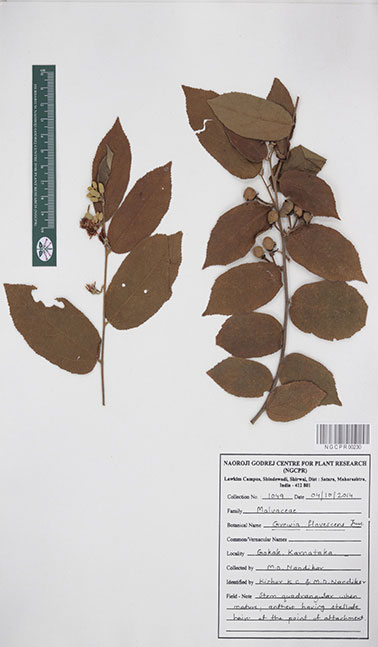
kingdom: Plantae
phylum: Tracheophyta
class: Magnoliopsida
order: Malvales
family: Malvaceae
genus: Grewia
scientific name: Grewia flavescens
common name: Sandpaper raisin
